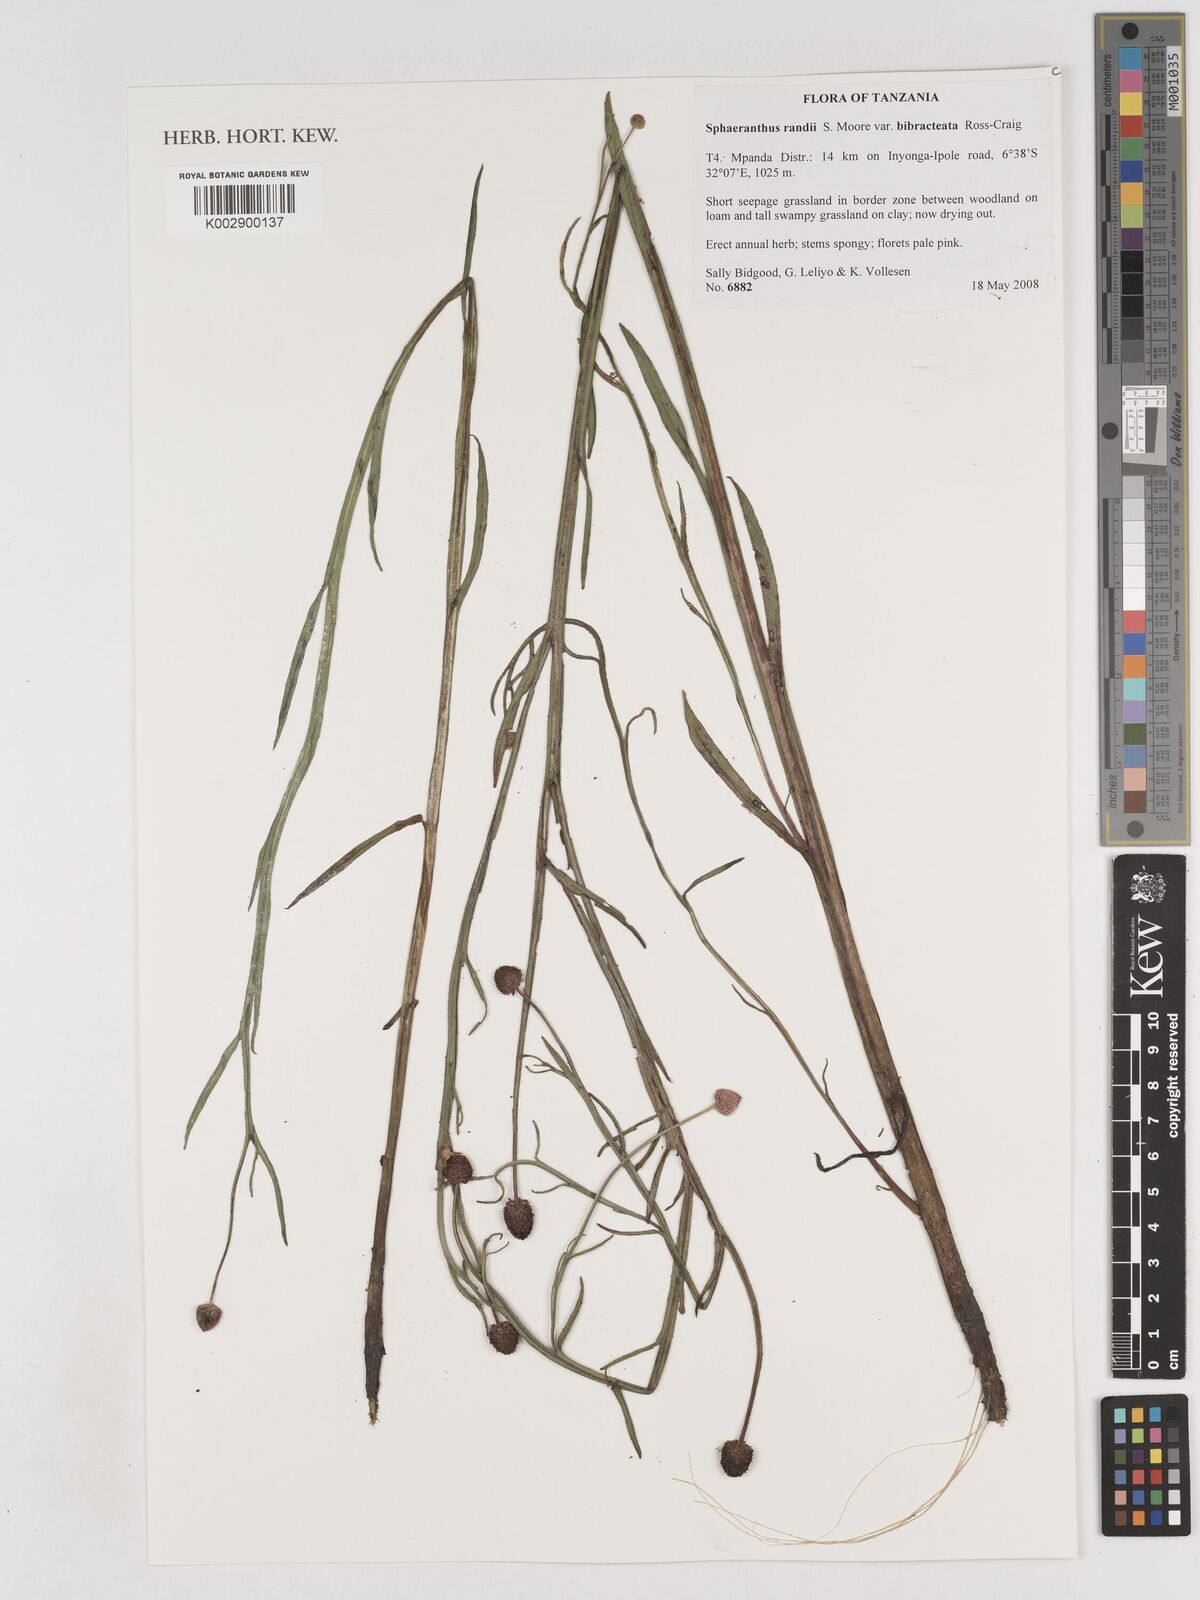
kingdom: Plantae
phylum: Tracheophyta
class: Magnoliopsida
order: Asterales
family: Asteraceae
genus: Sphaeranthus
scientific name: Sphaeranthus randii
